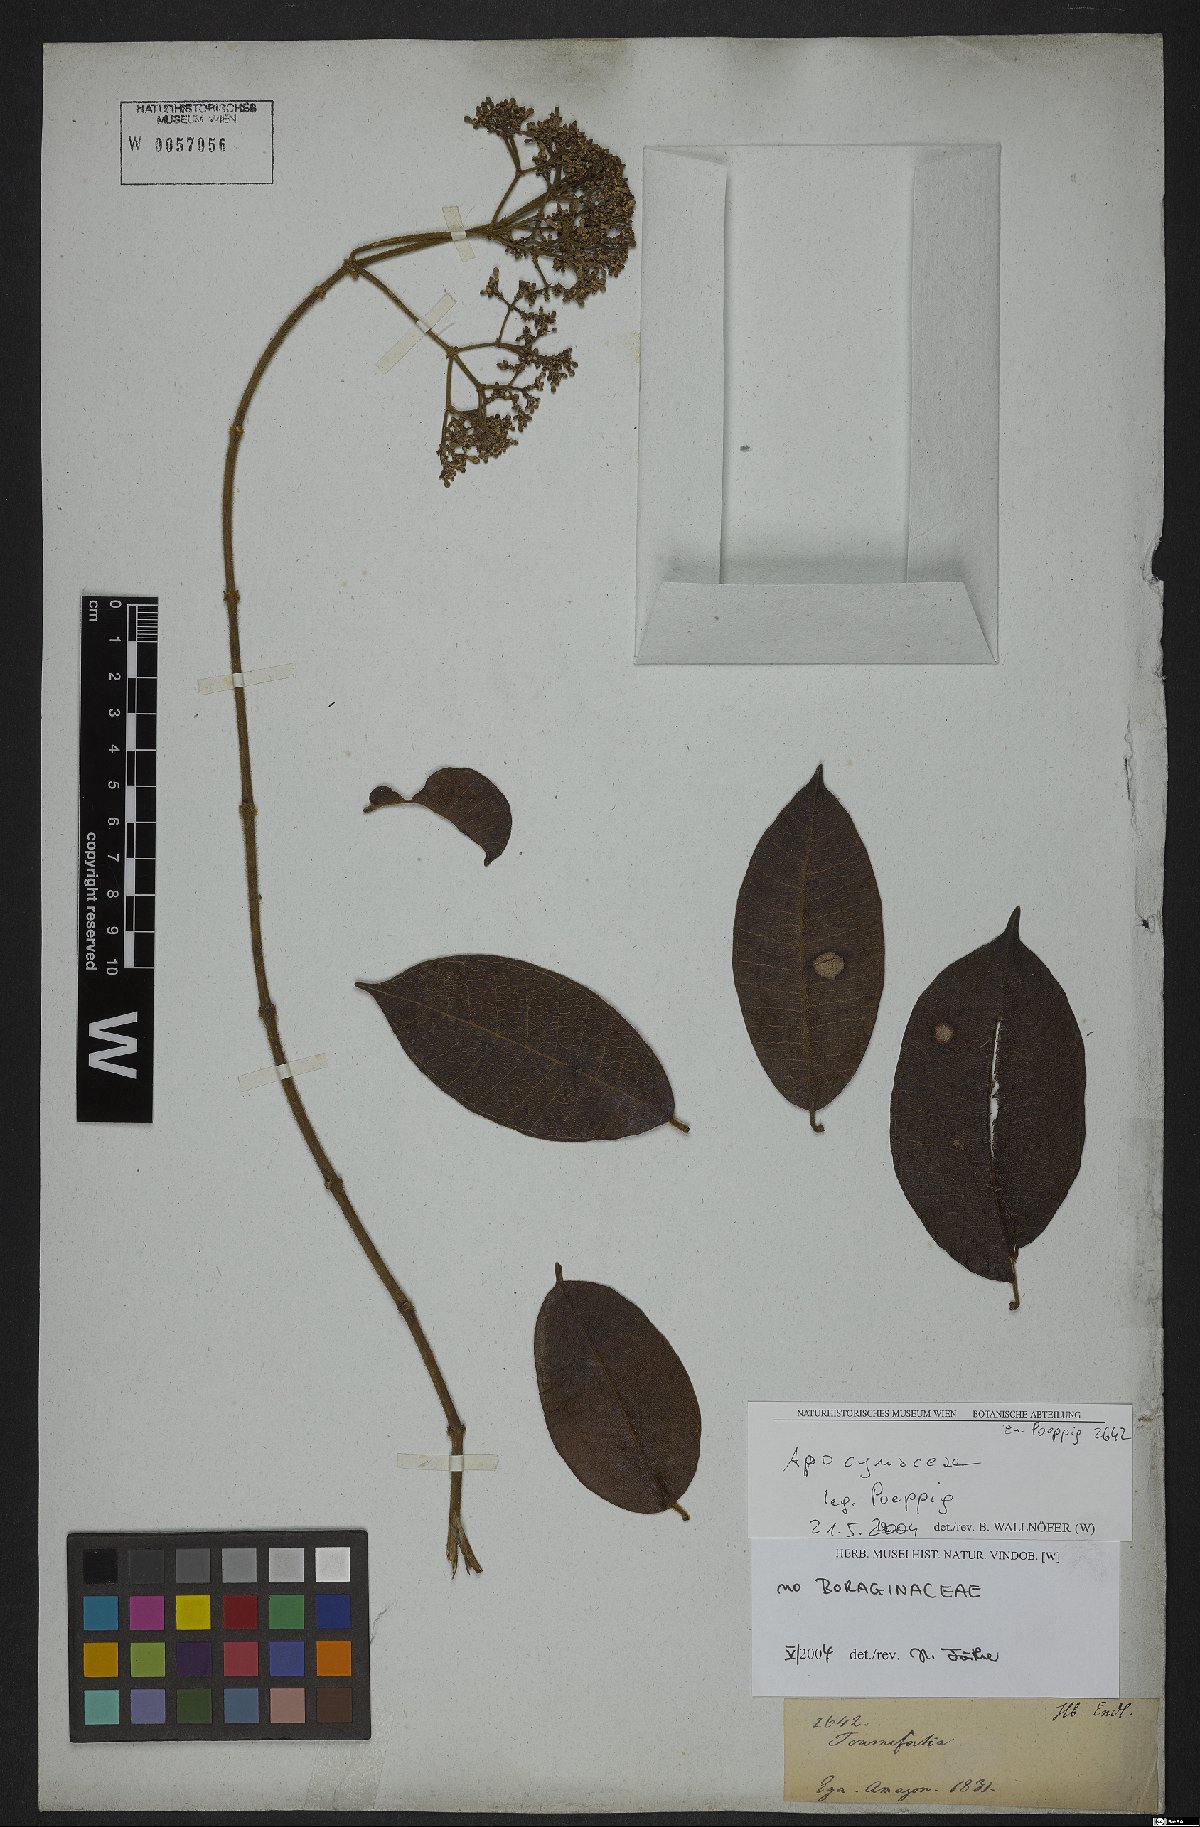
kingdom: Plantae
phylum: Tracheophyta
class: Magnoliopsida
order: Gentianales
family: Apocynaceae
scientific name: Apocynaceae
